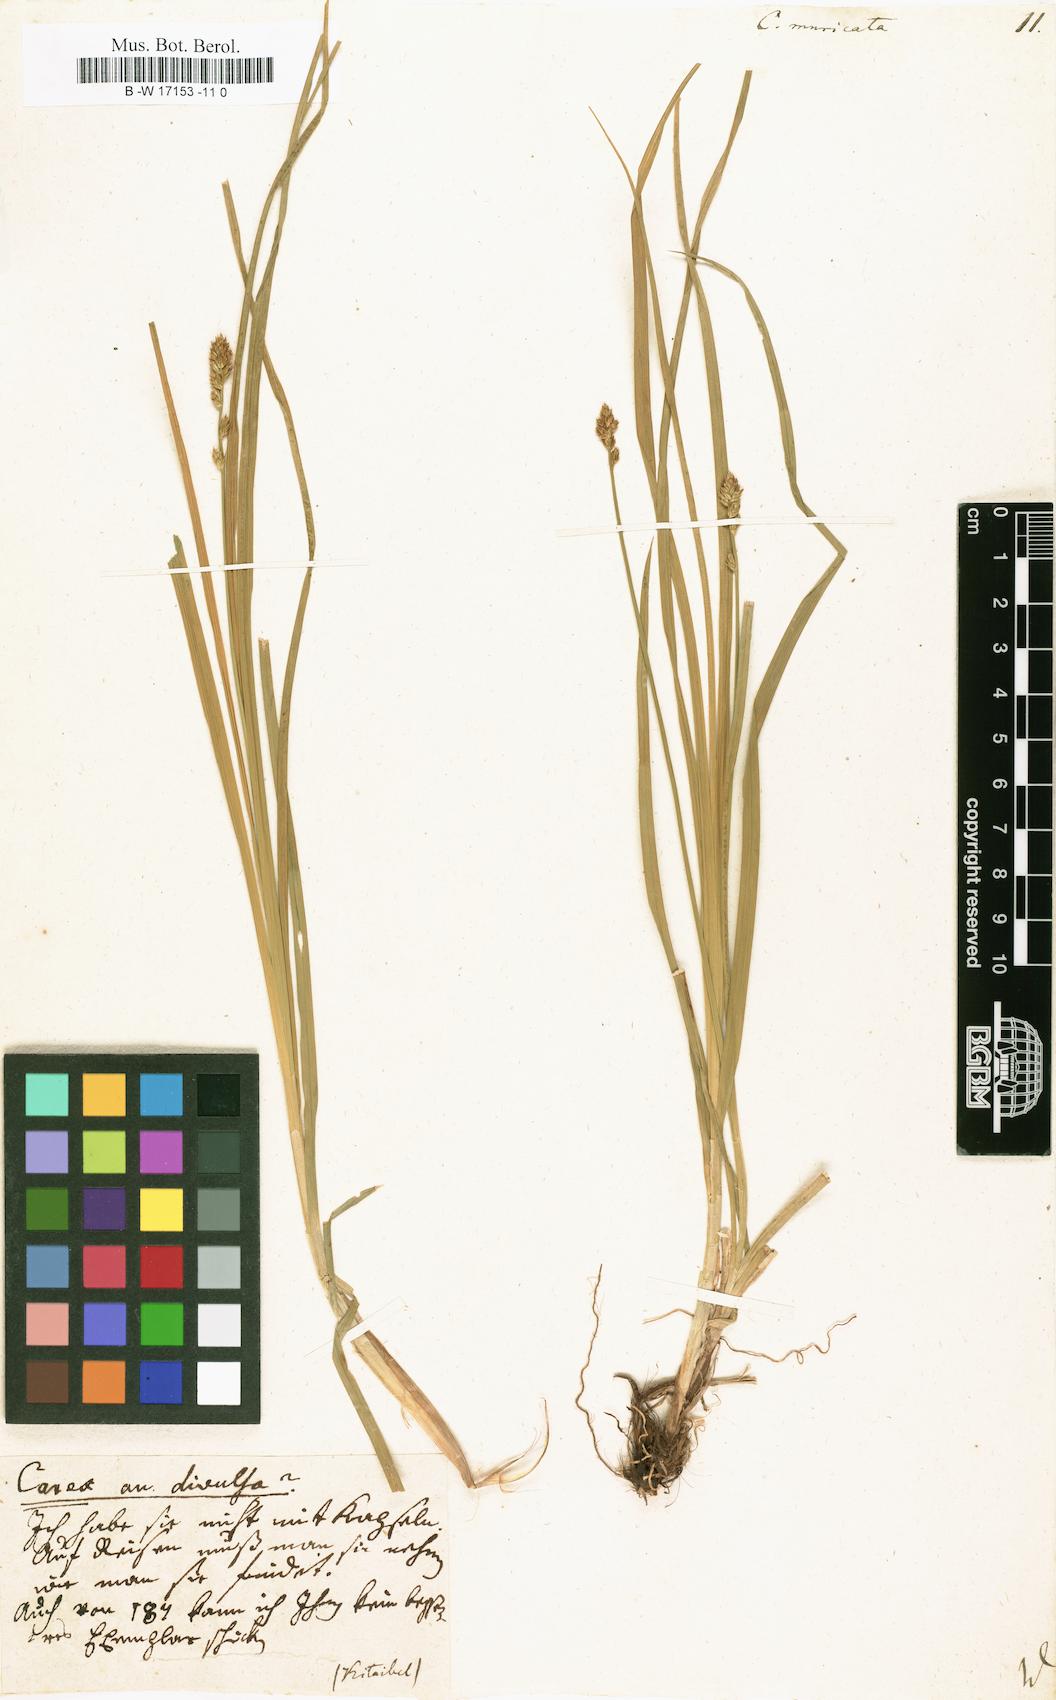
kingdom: Plantae
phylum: Tracheophyta
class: Liliopsida
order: Poales
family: Cyperaceae
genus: Carex
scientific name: Carex muricata
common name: Rough sedge
